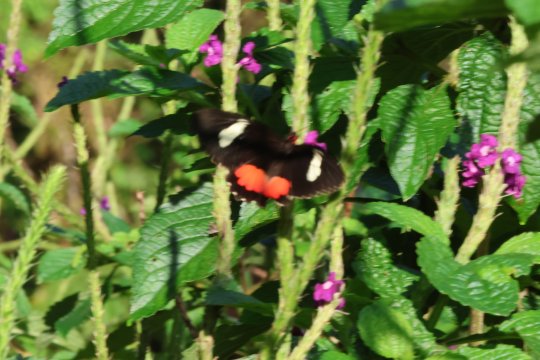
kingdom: Animalia
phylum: Arthropoda
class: Insecta
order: Lepidoptera
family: Papilionidae
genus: Parides
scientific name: Parides eurimedes
